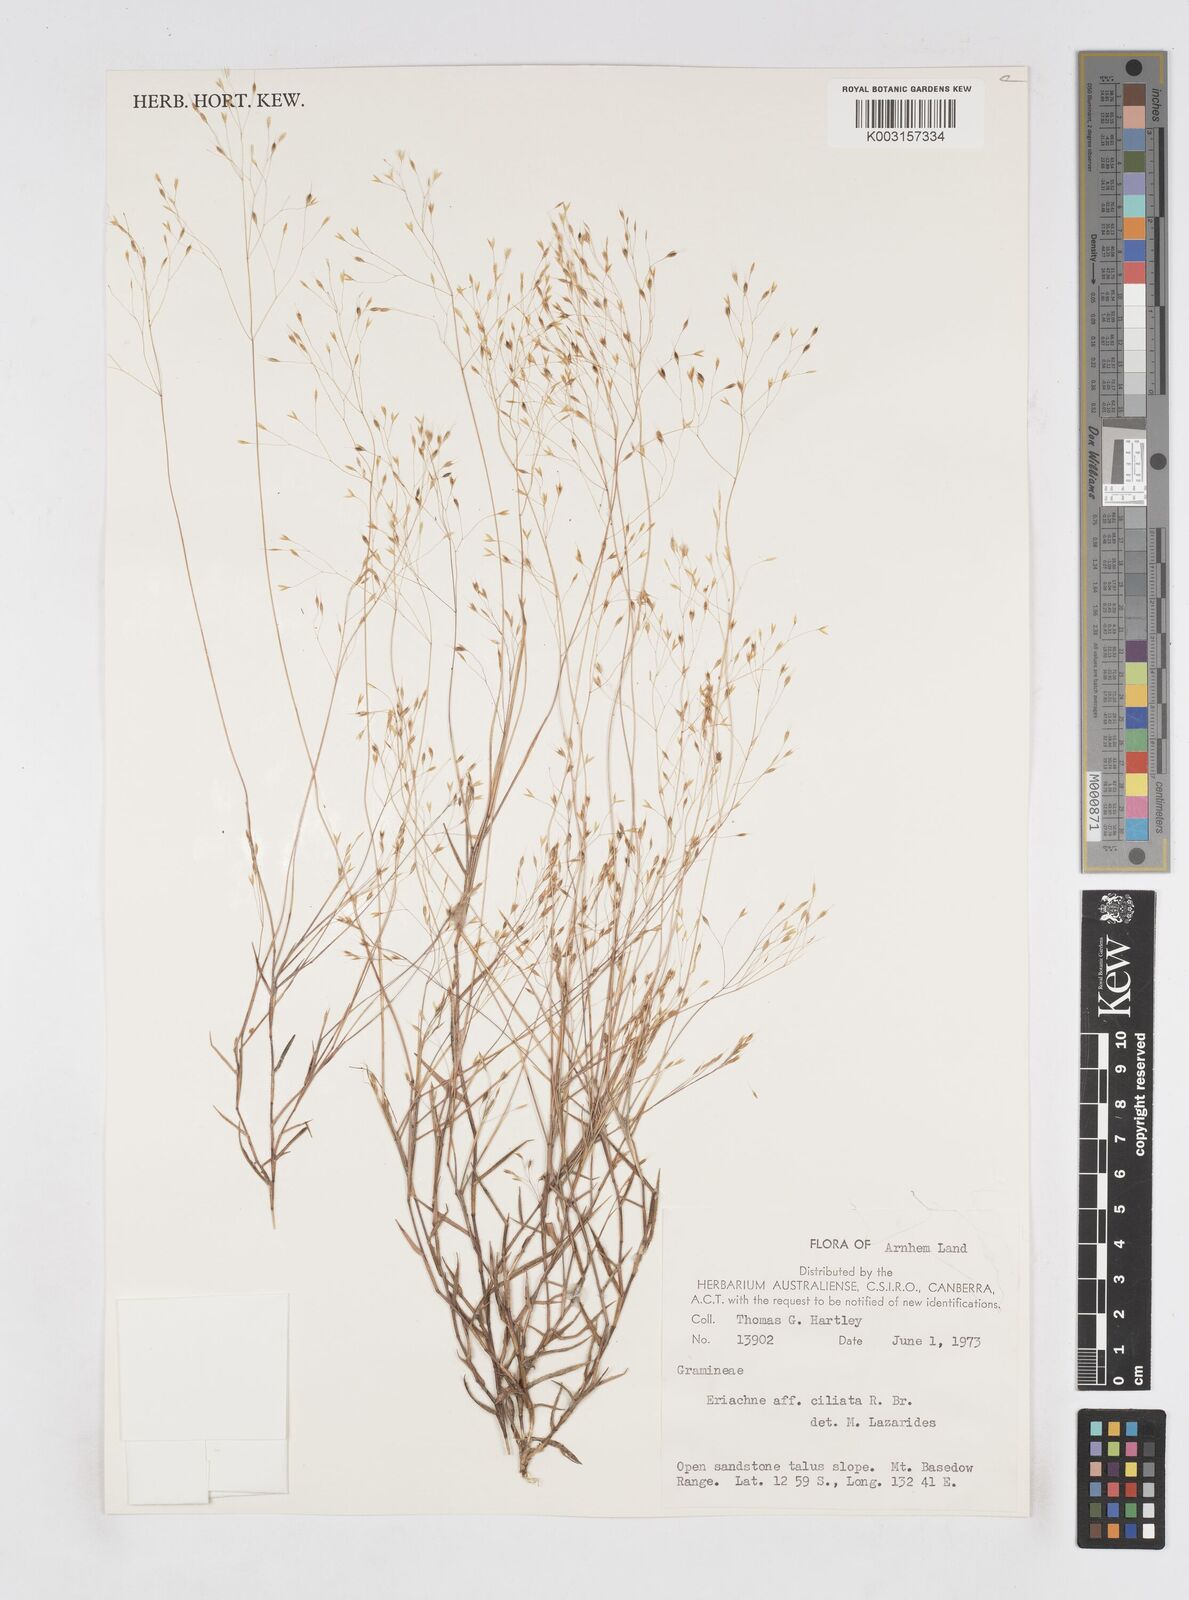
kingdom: Plantae
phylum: Tracheophyta
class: Liliopsida
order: Poales
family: Poaceae
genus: Eriachne
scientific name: Eriachne ciliata
